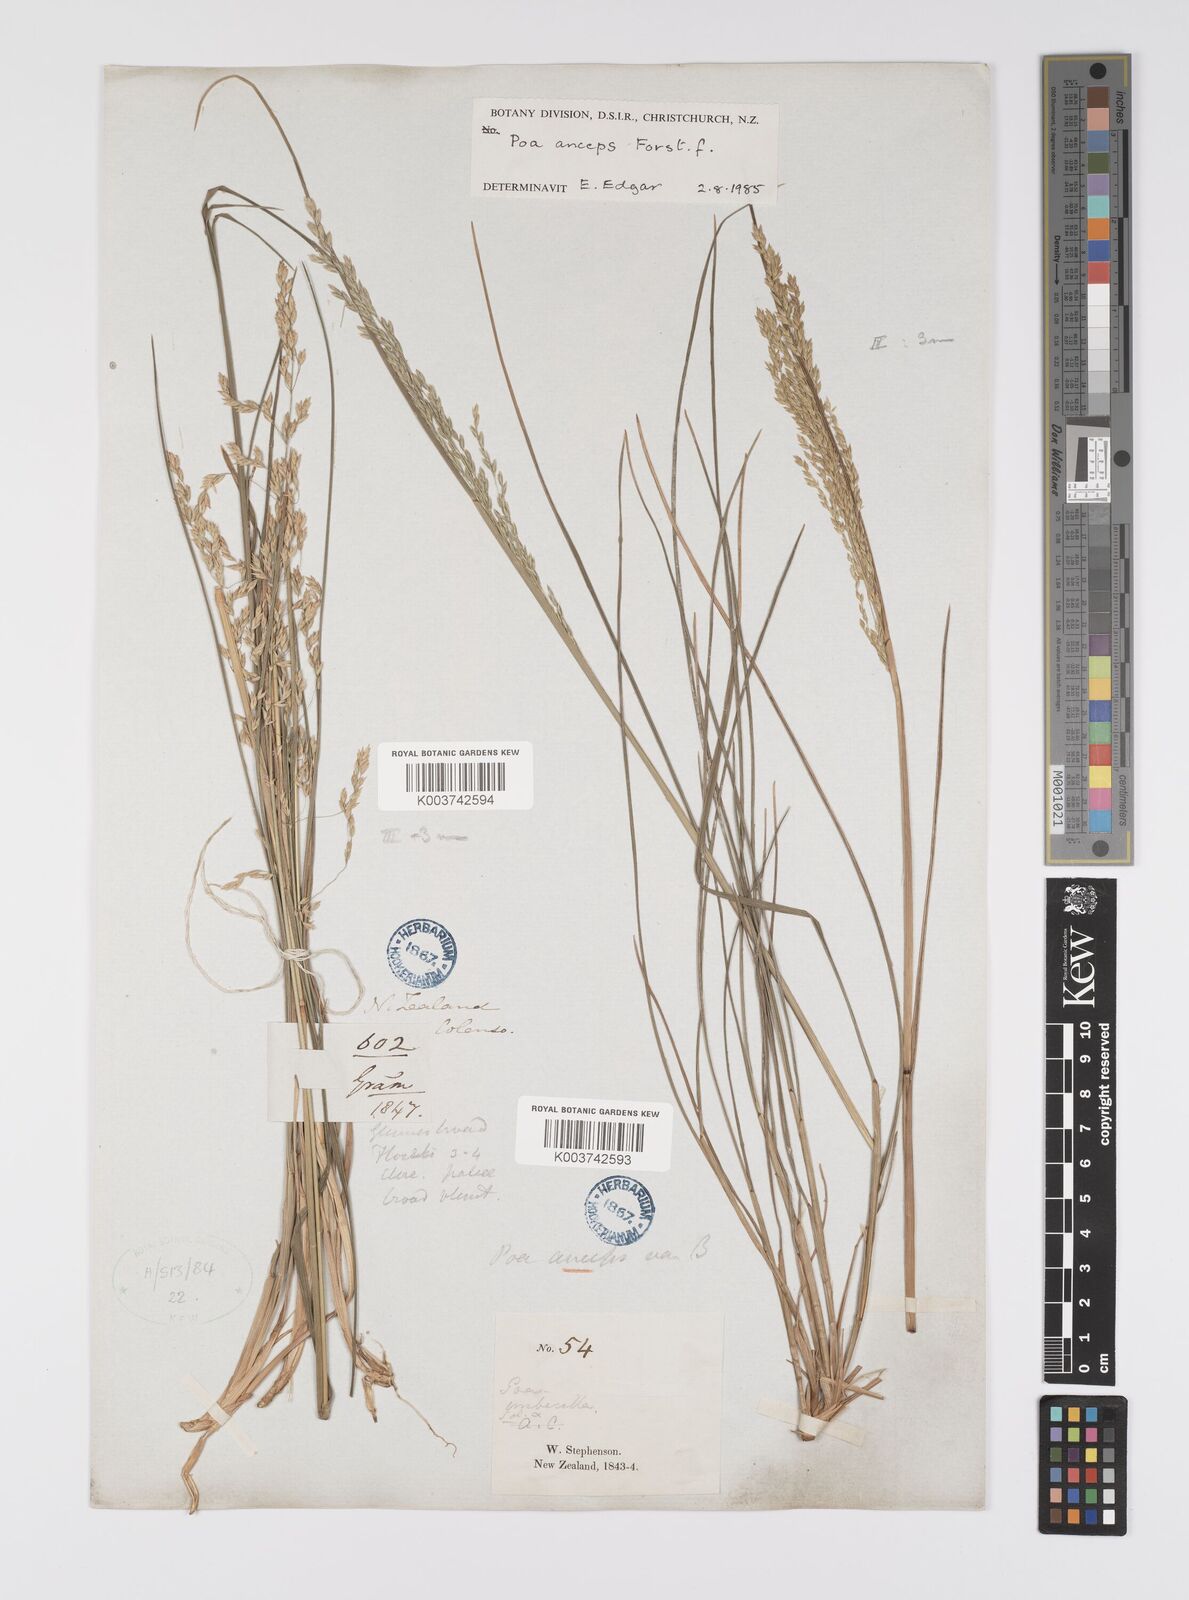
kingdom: Plantae
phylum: Tracheophyta
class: Liliopsida
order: Poales
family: Poaceae
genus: Poa
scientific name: Poa anceps
